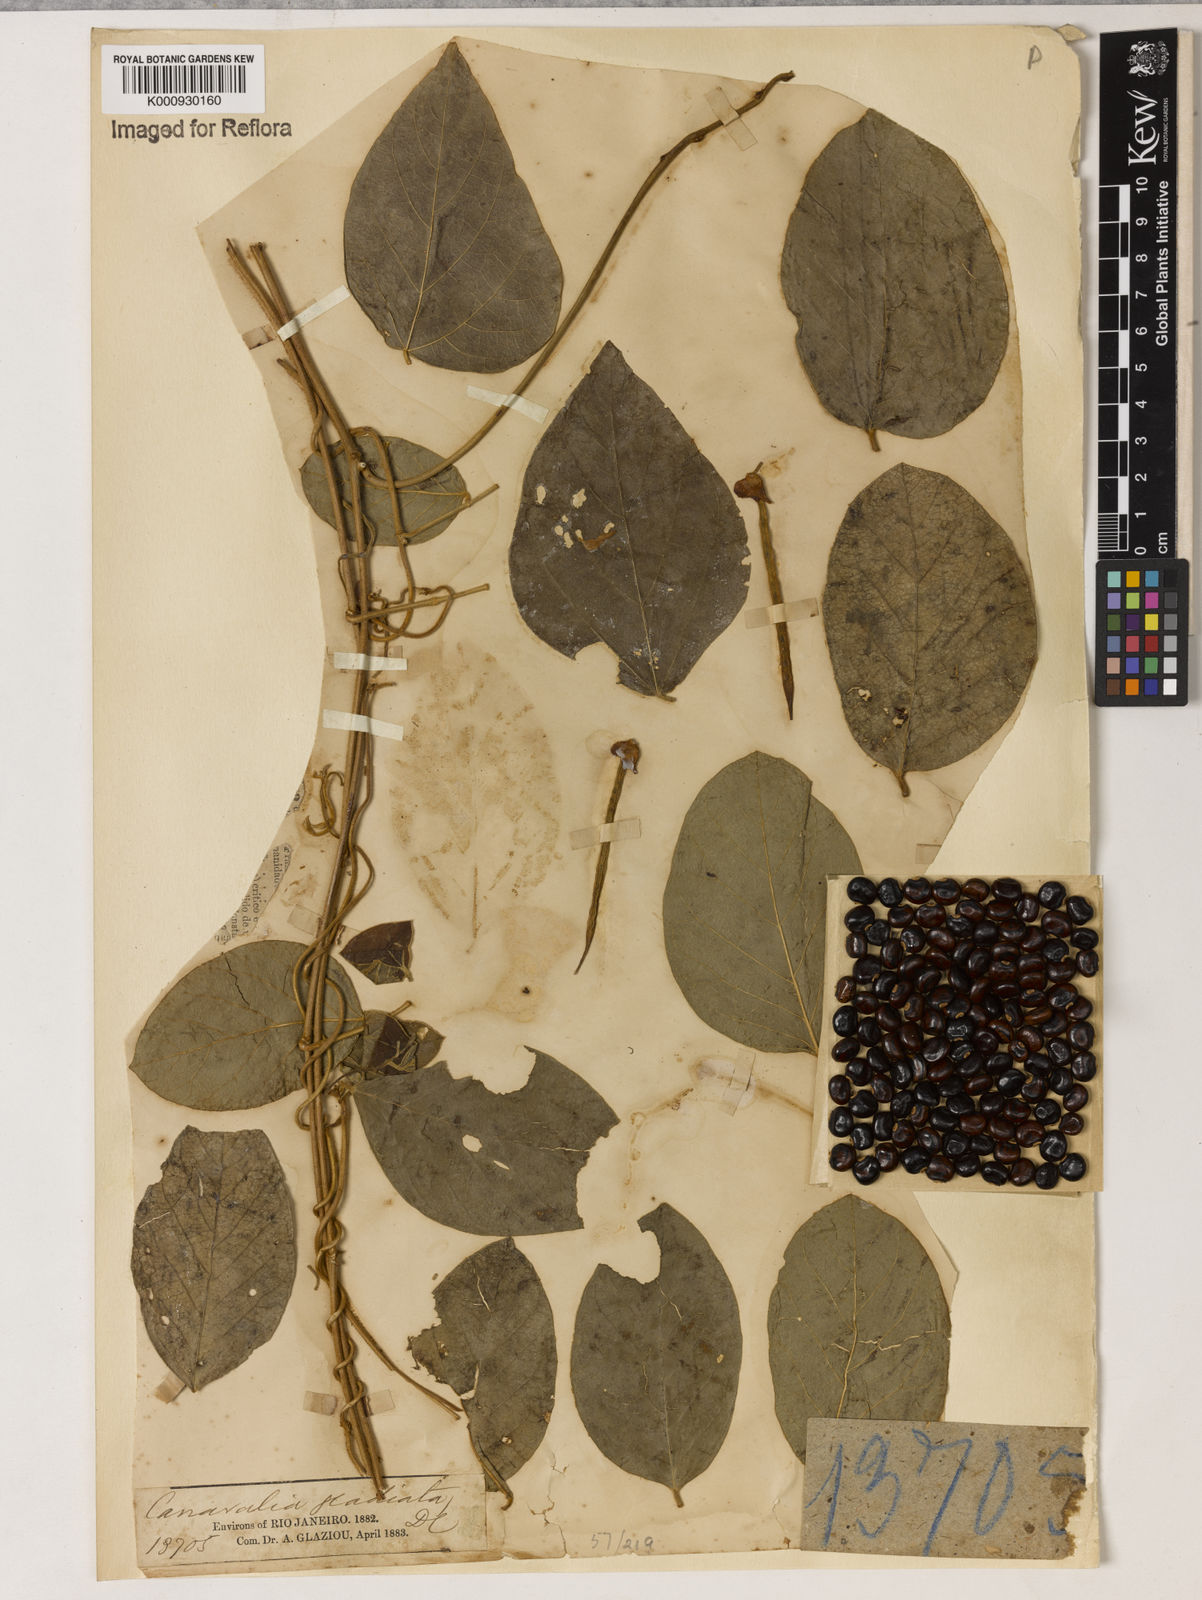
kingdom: Plantae
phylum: Tracheophyta
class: Magnoliopsida
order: Fabales
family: Fabaceae
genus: Canavalia
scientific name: Canavalia gladiata
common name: Scimitar-bean
